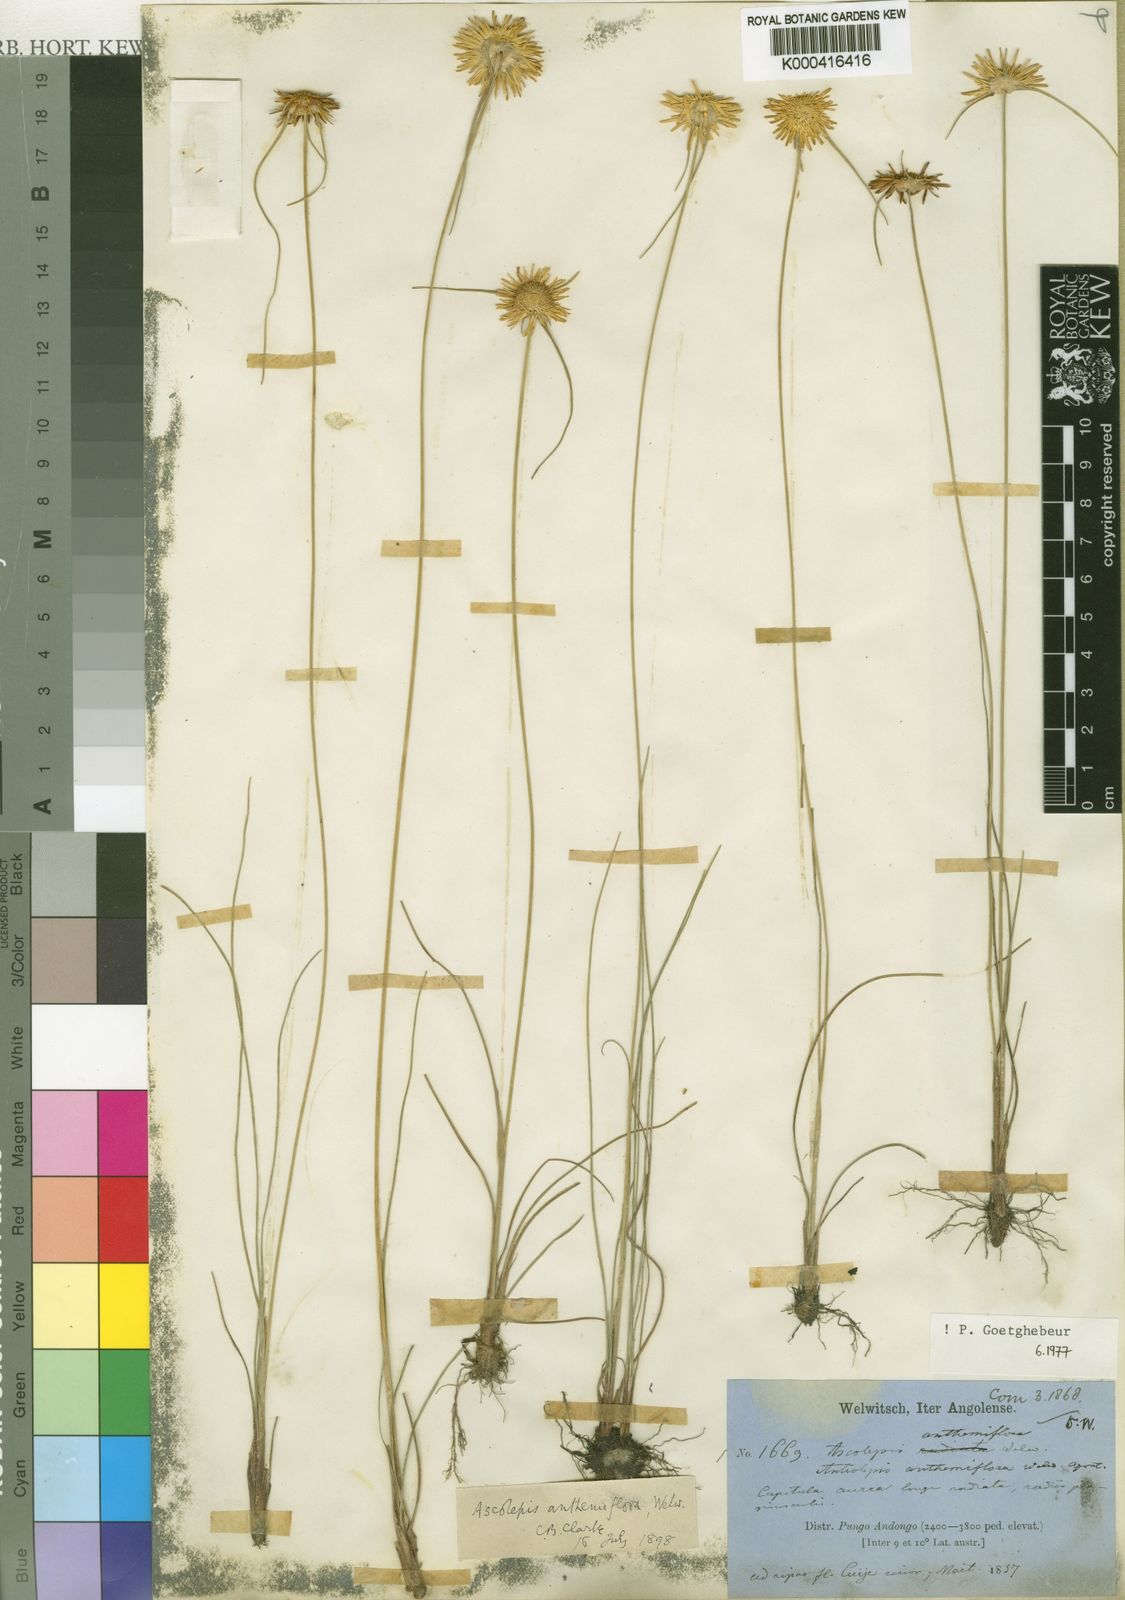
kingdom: Plantae
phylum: Tracheophyta
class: Liliopsida
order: Poales
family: Cyperaceae
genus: Cyperus
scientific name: Cyperus proteus
